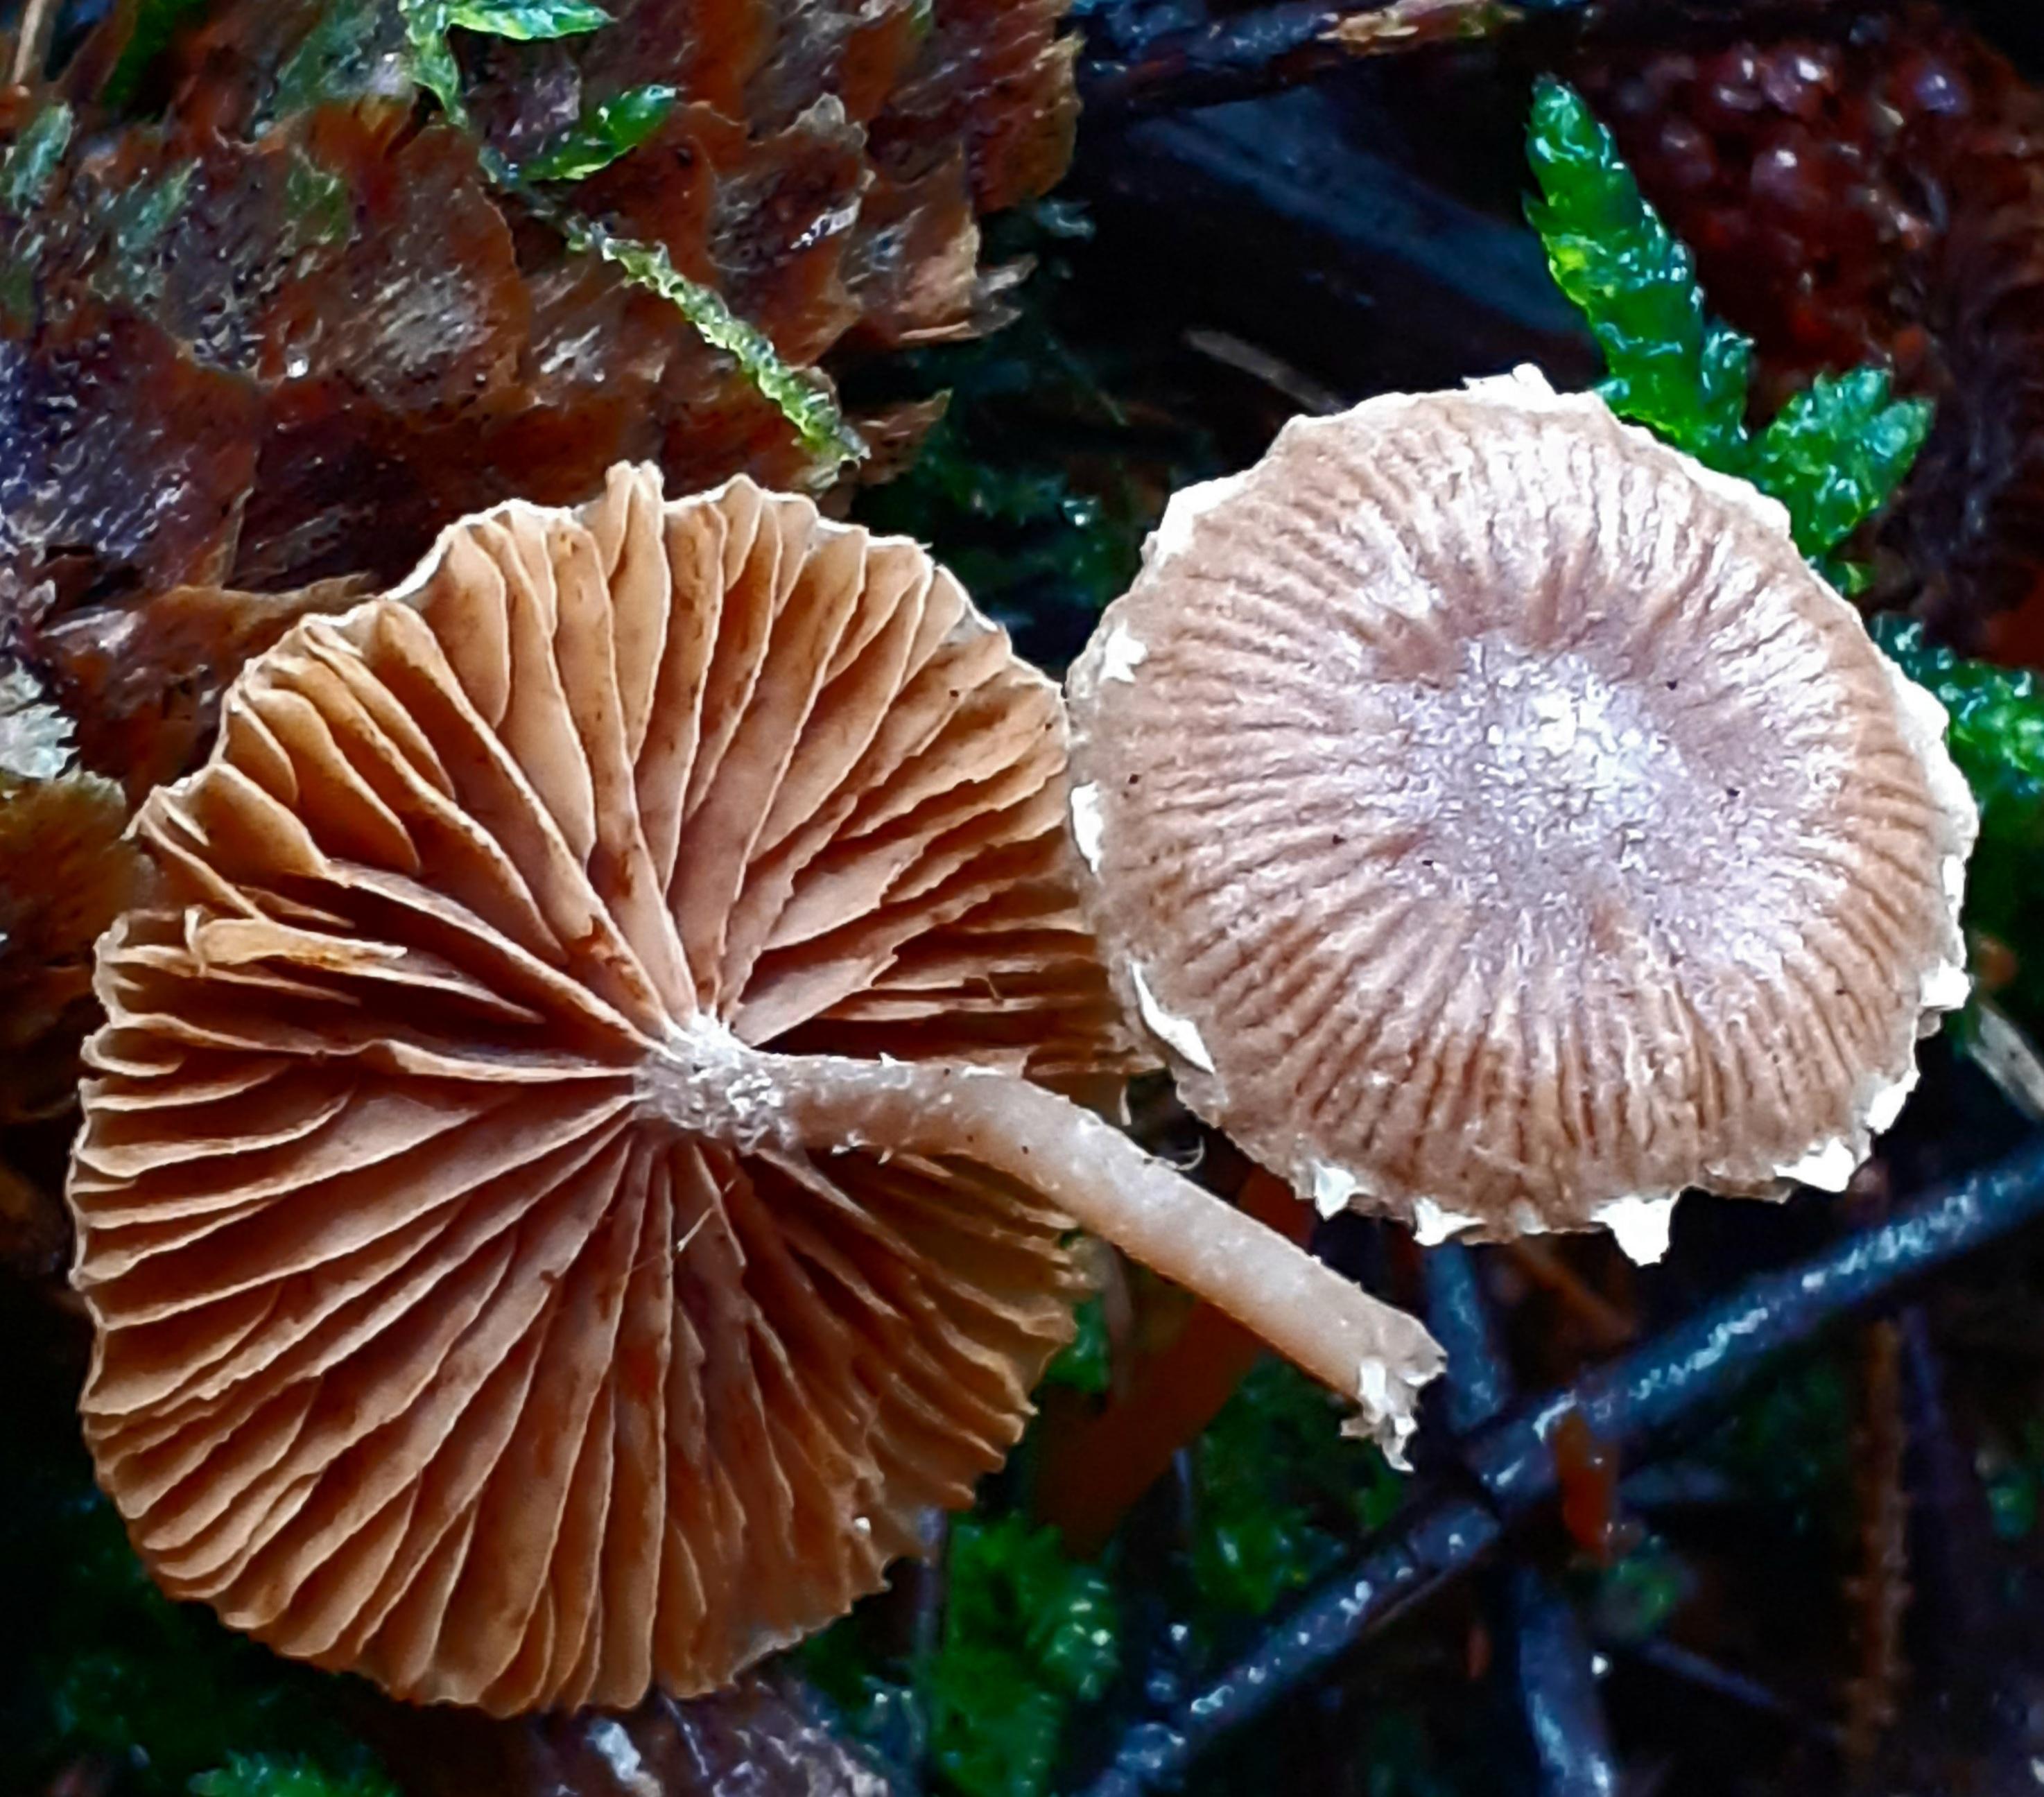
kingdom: Fungi
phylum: Basidiomycota
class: Agaricomycetes
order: Agaricales
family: Tubariaceae
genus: Tubaria
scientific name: Tubaria furfuracea
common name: kliddet fnughat
